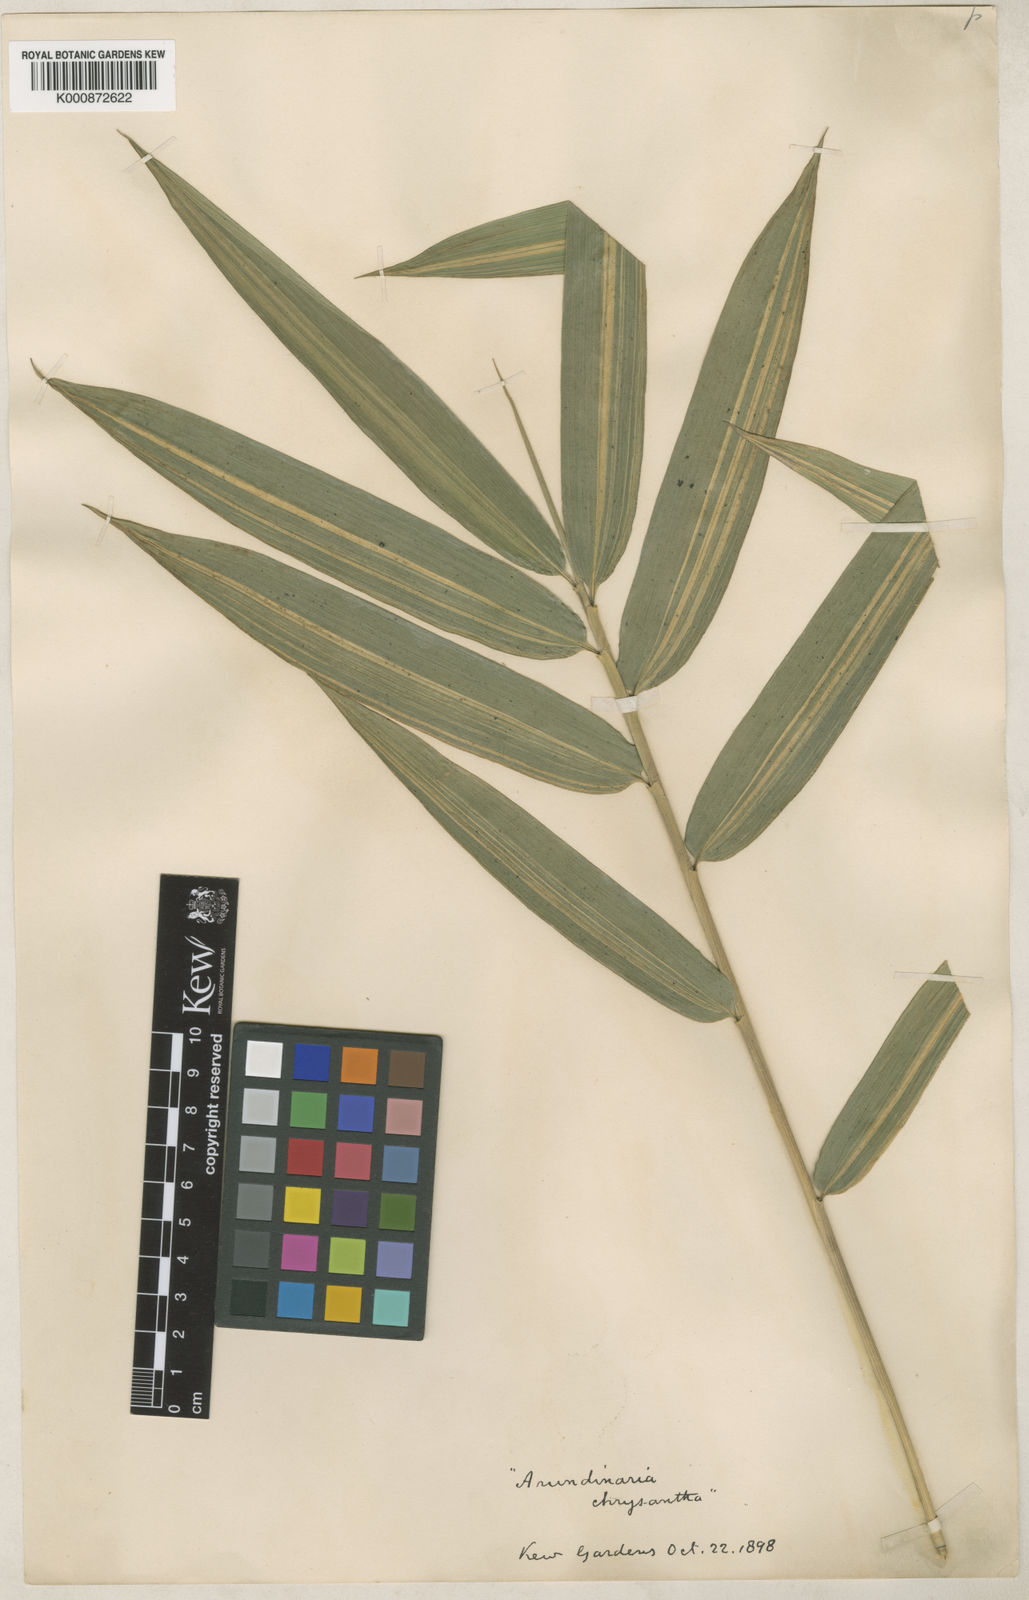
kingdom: Plantae
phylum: Tracheophyta
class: Liliopsida
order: Poales
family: Poaceae
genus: Pleioblastus
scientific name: Pleioblastus argenteostriatus
